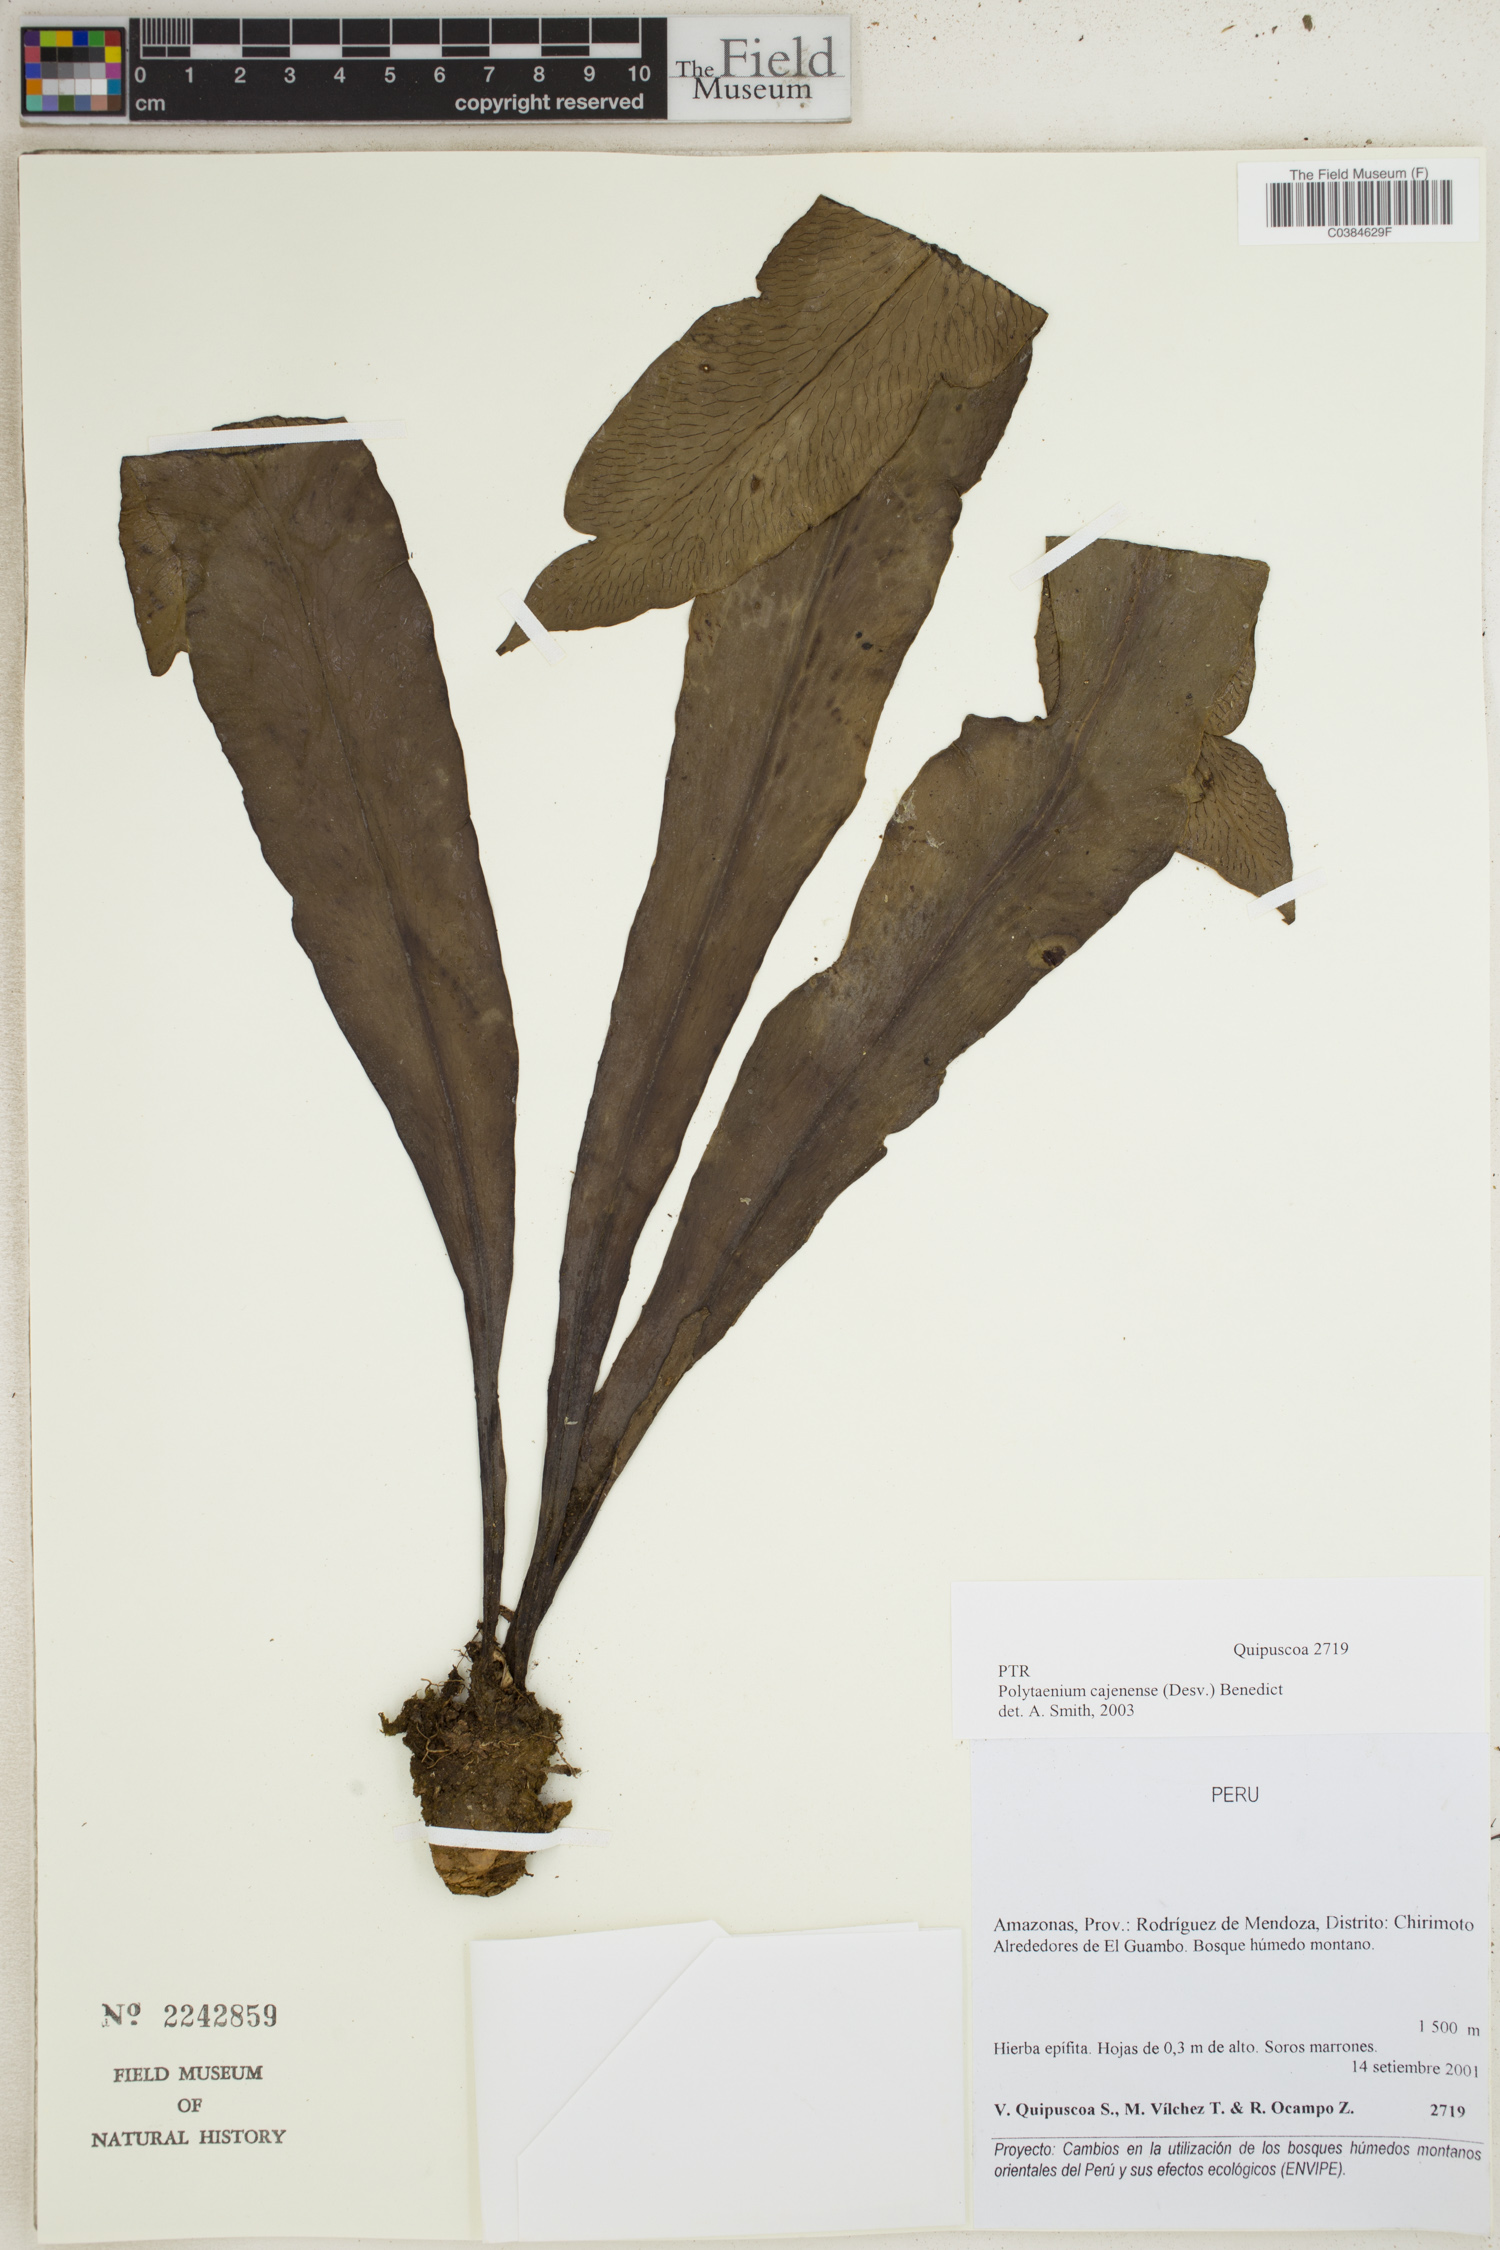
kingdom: Plantae
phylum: Tracheophyta
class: Polypodiopsida
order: Polypodiales
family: Pteridaceae
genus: Polytaenium
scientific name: Polytaenium cajenense
